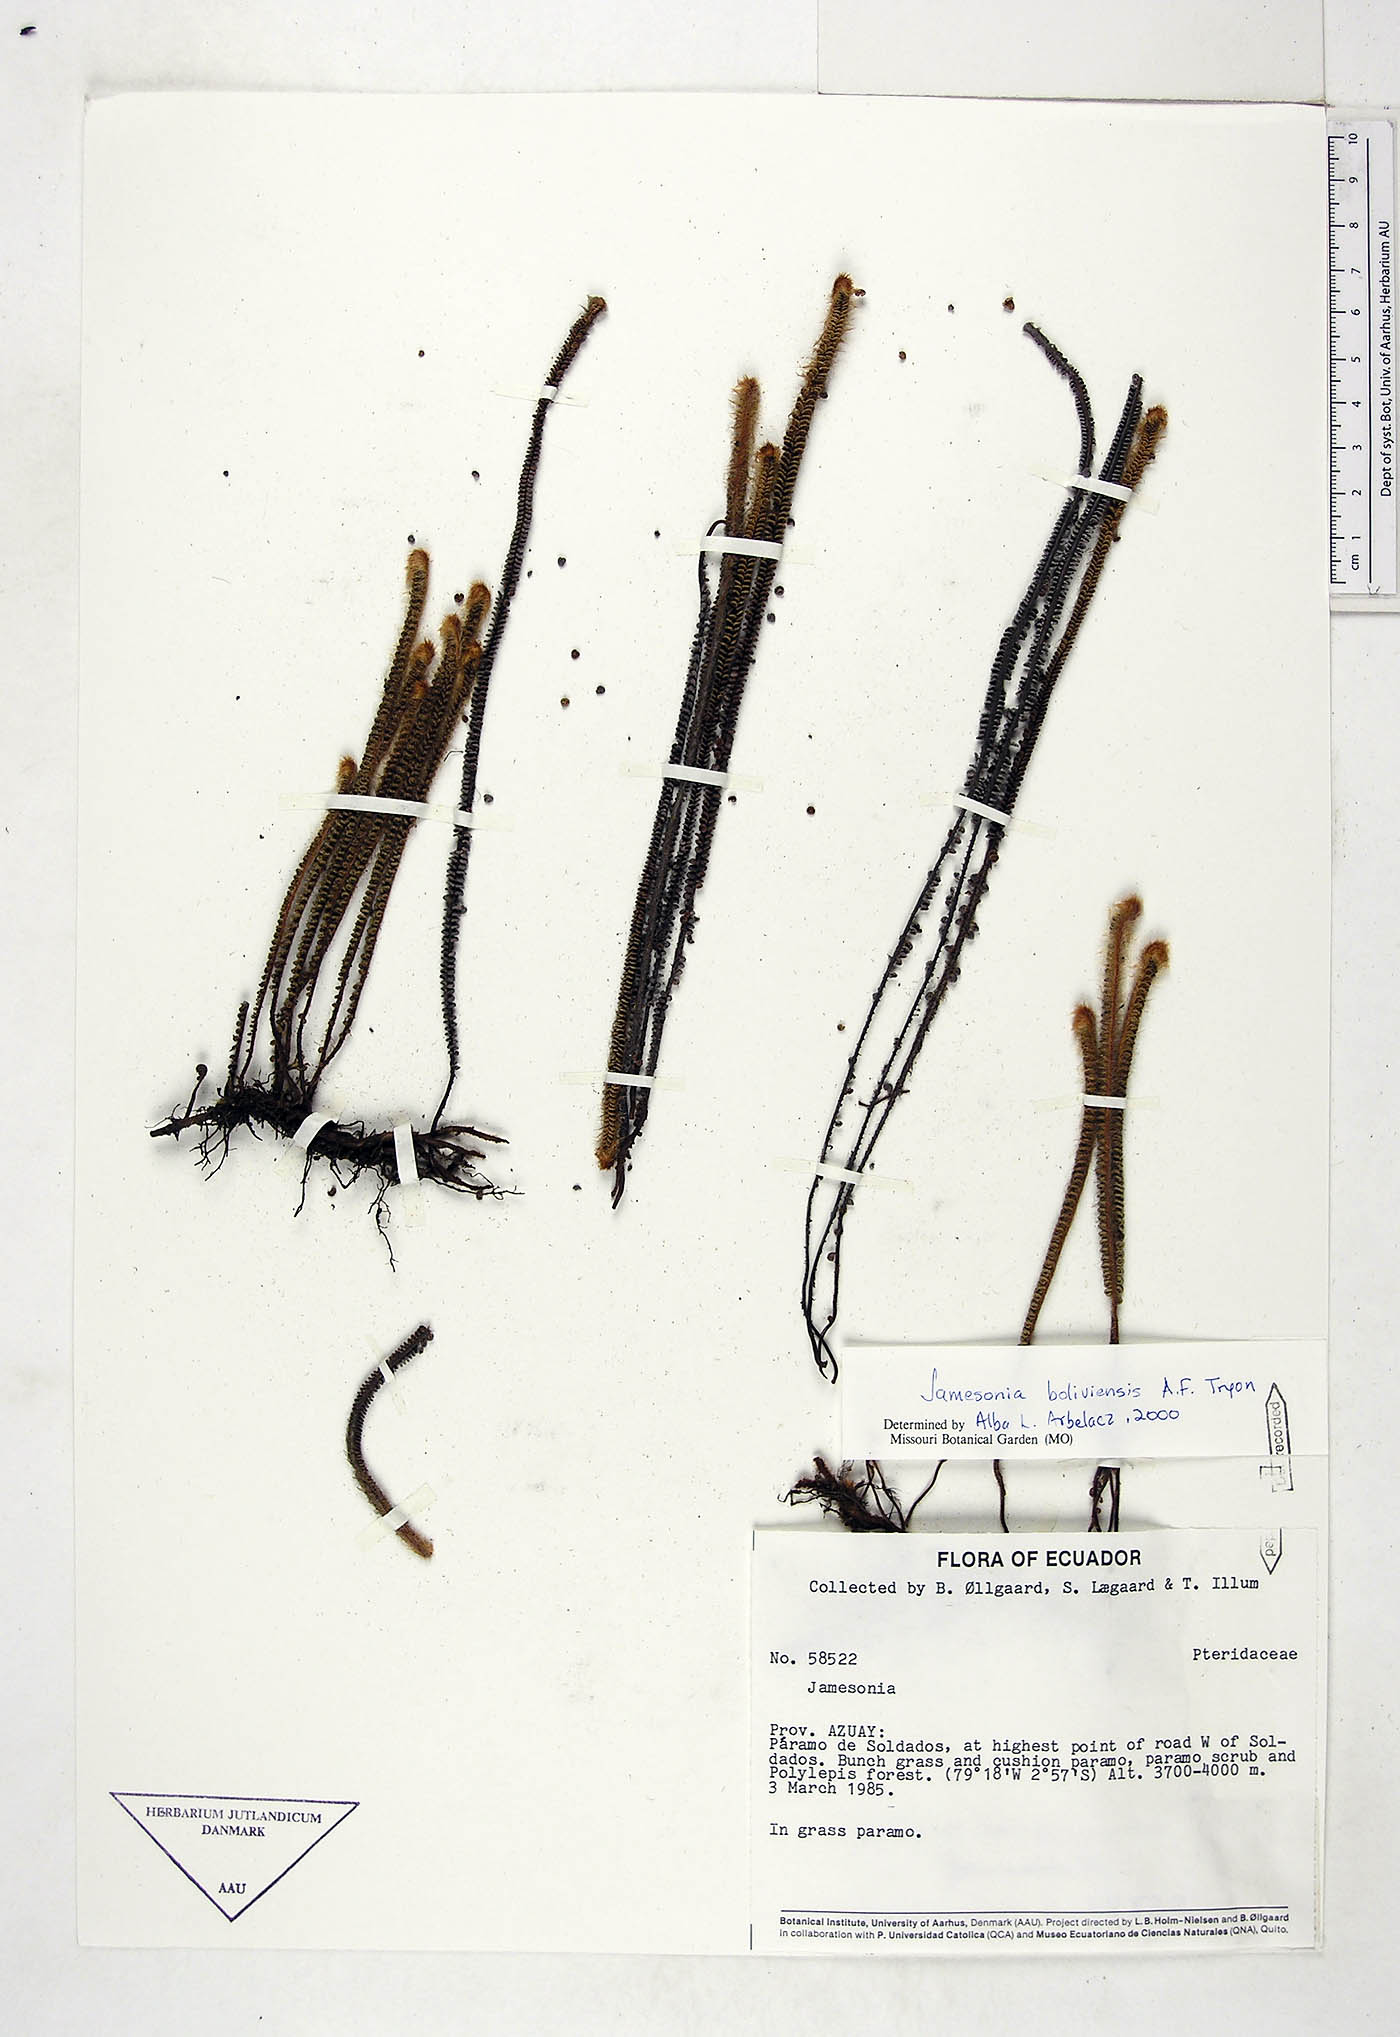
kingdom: Plantae
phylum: Tracheophyta
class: Polypodiopsida
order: Polypodiales
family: Pteridaceae
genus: Jamesonia
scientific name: Jamesonia boliviensis
